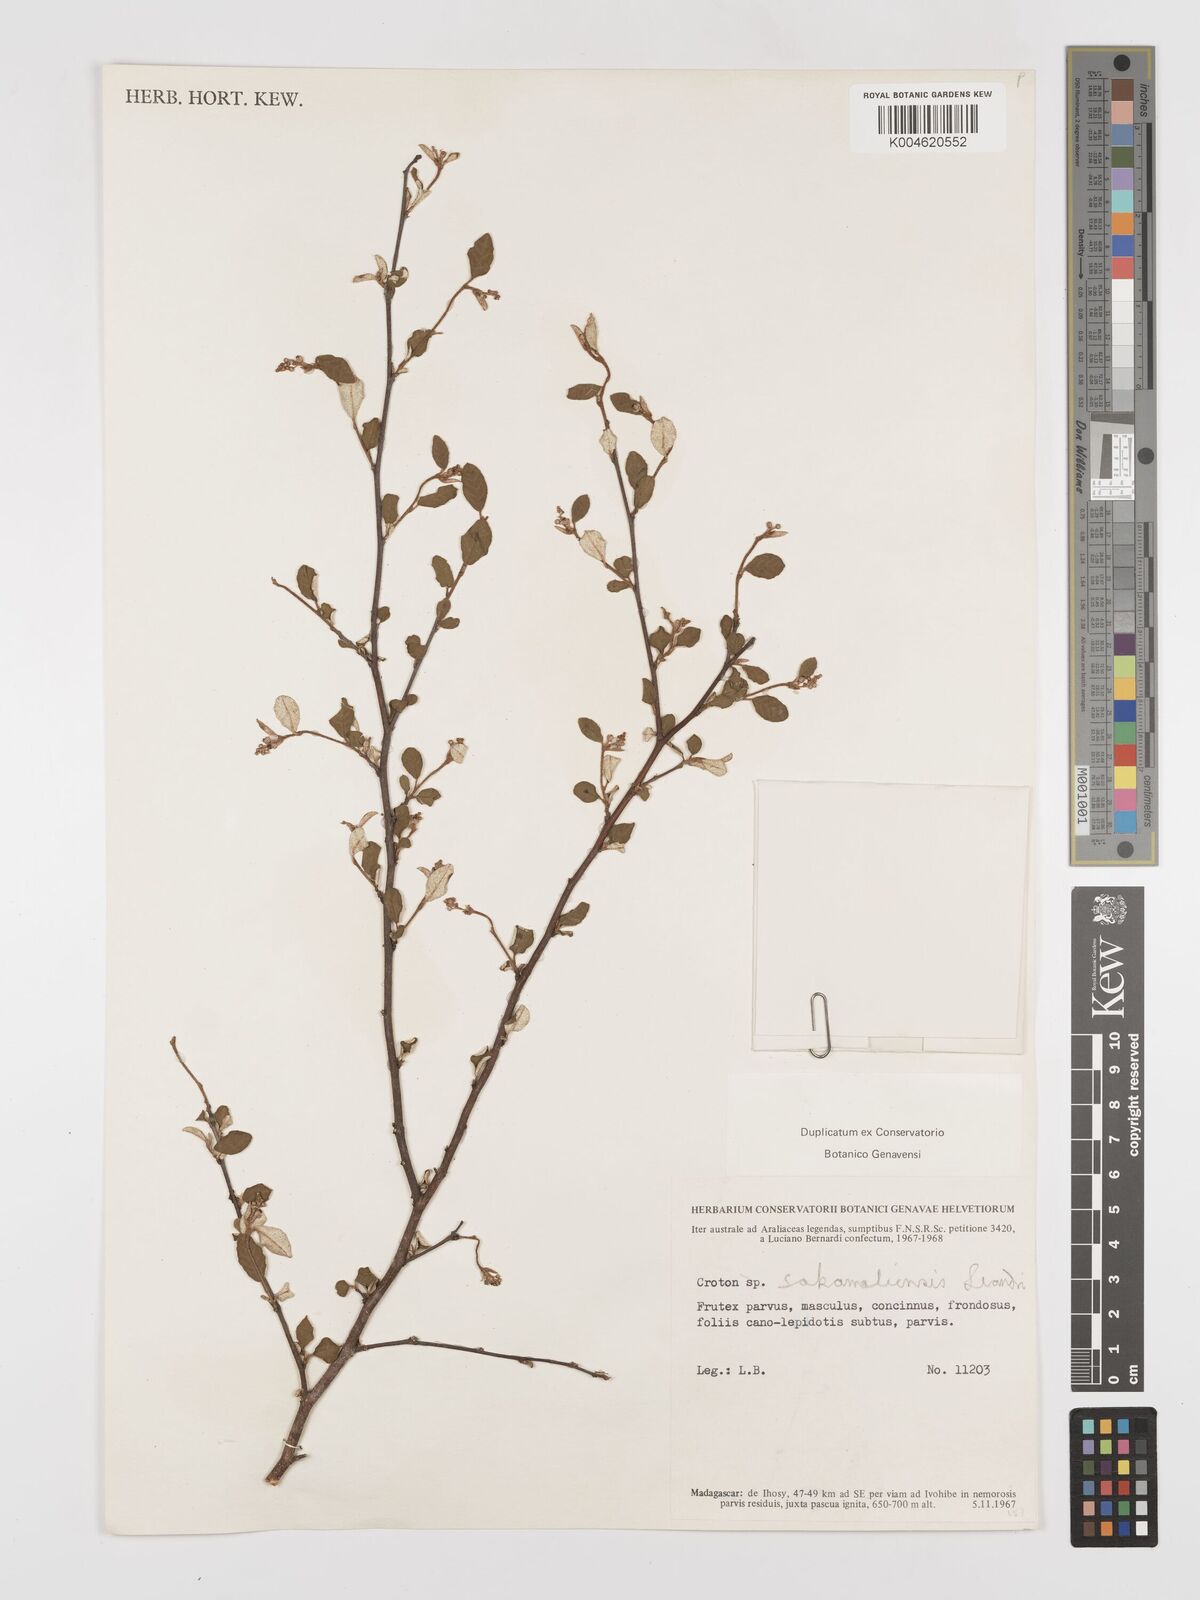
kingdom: Plantae
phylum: Tracheophyta
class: Magnoliopsida
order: Malpighiales
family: Euphorbiaceae
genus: Croton
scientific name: Croton sakamaliensis
